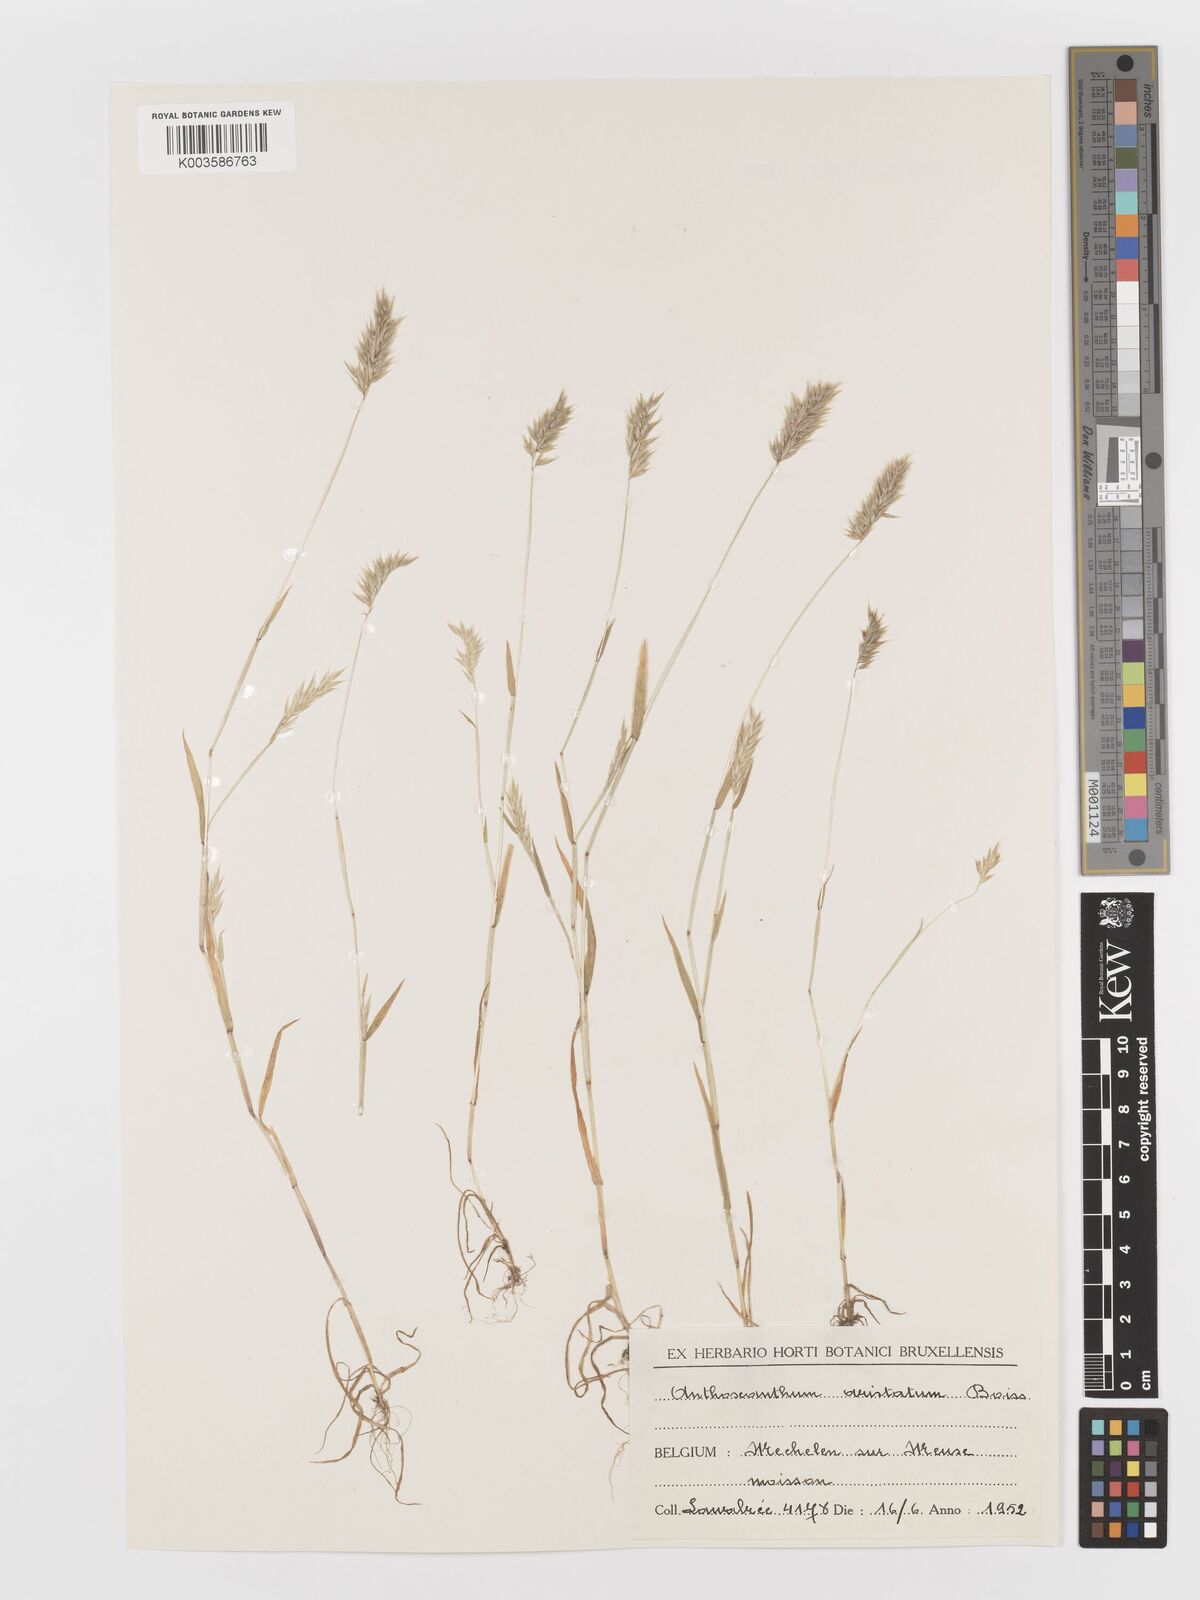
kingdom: Plantae
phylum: Tracheophyta
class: Liliopsida
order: Poales
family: Poaceae
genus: Anthoxanthum
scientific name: Anthoxanthum aristatum
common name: Annual vernal-grass
